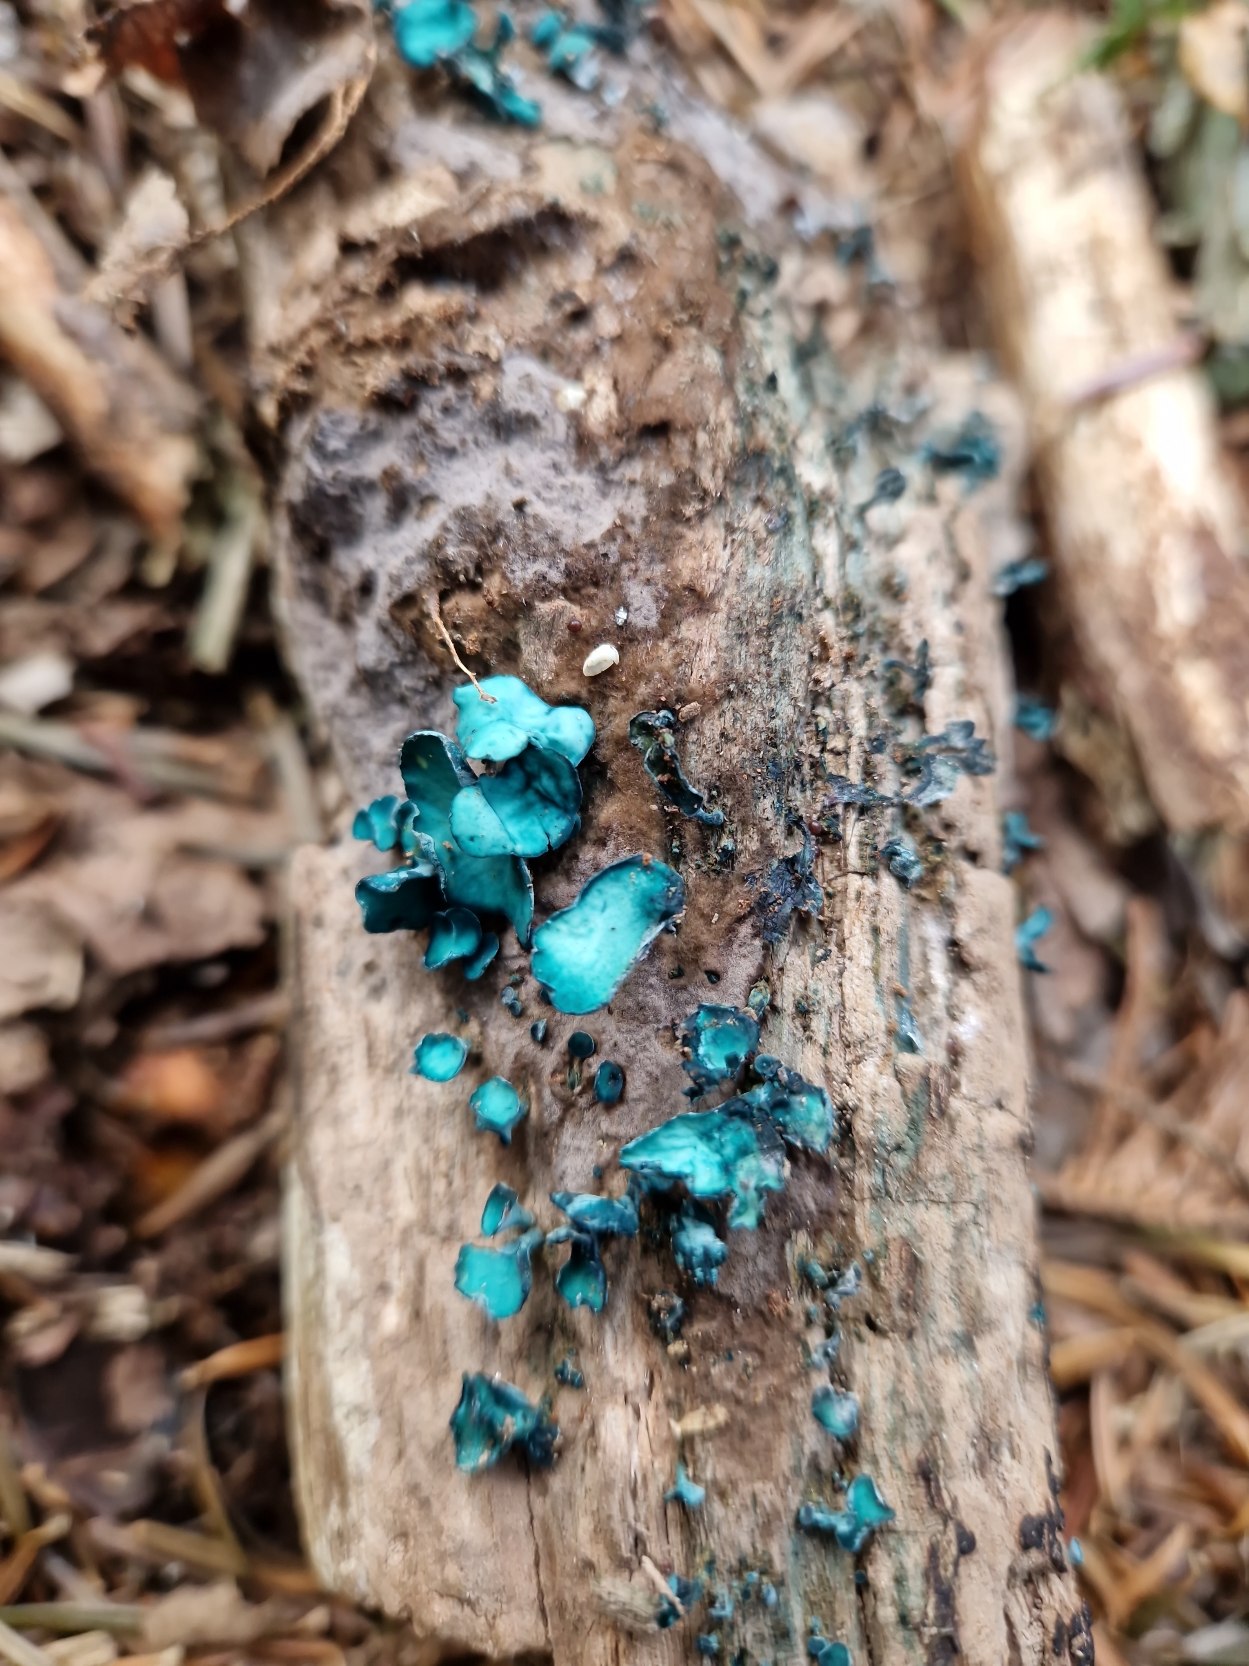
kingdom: Fungi
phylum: Ascomycota
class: Leotiomycetes
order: Helotiales
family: Chlorociboriaceae
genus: Chlorociboria
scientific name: Chlorociboria aeruginascens
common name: Almindelig grønskive
